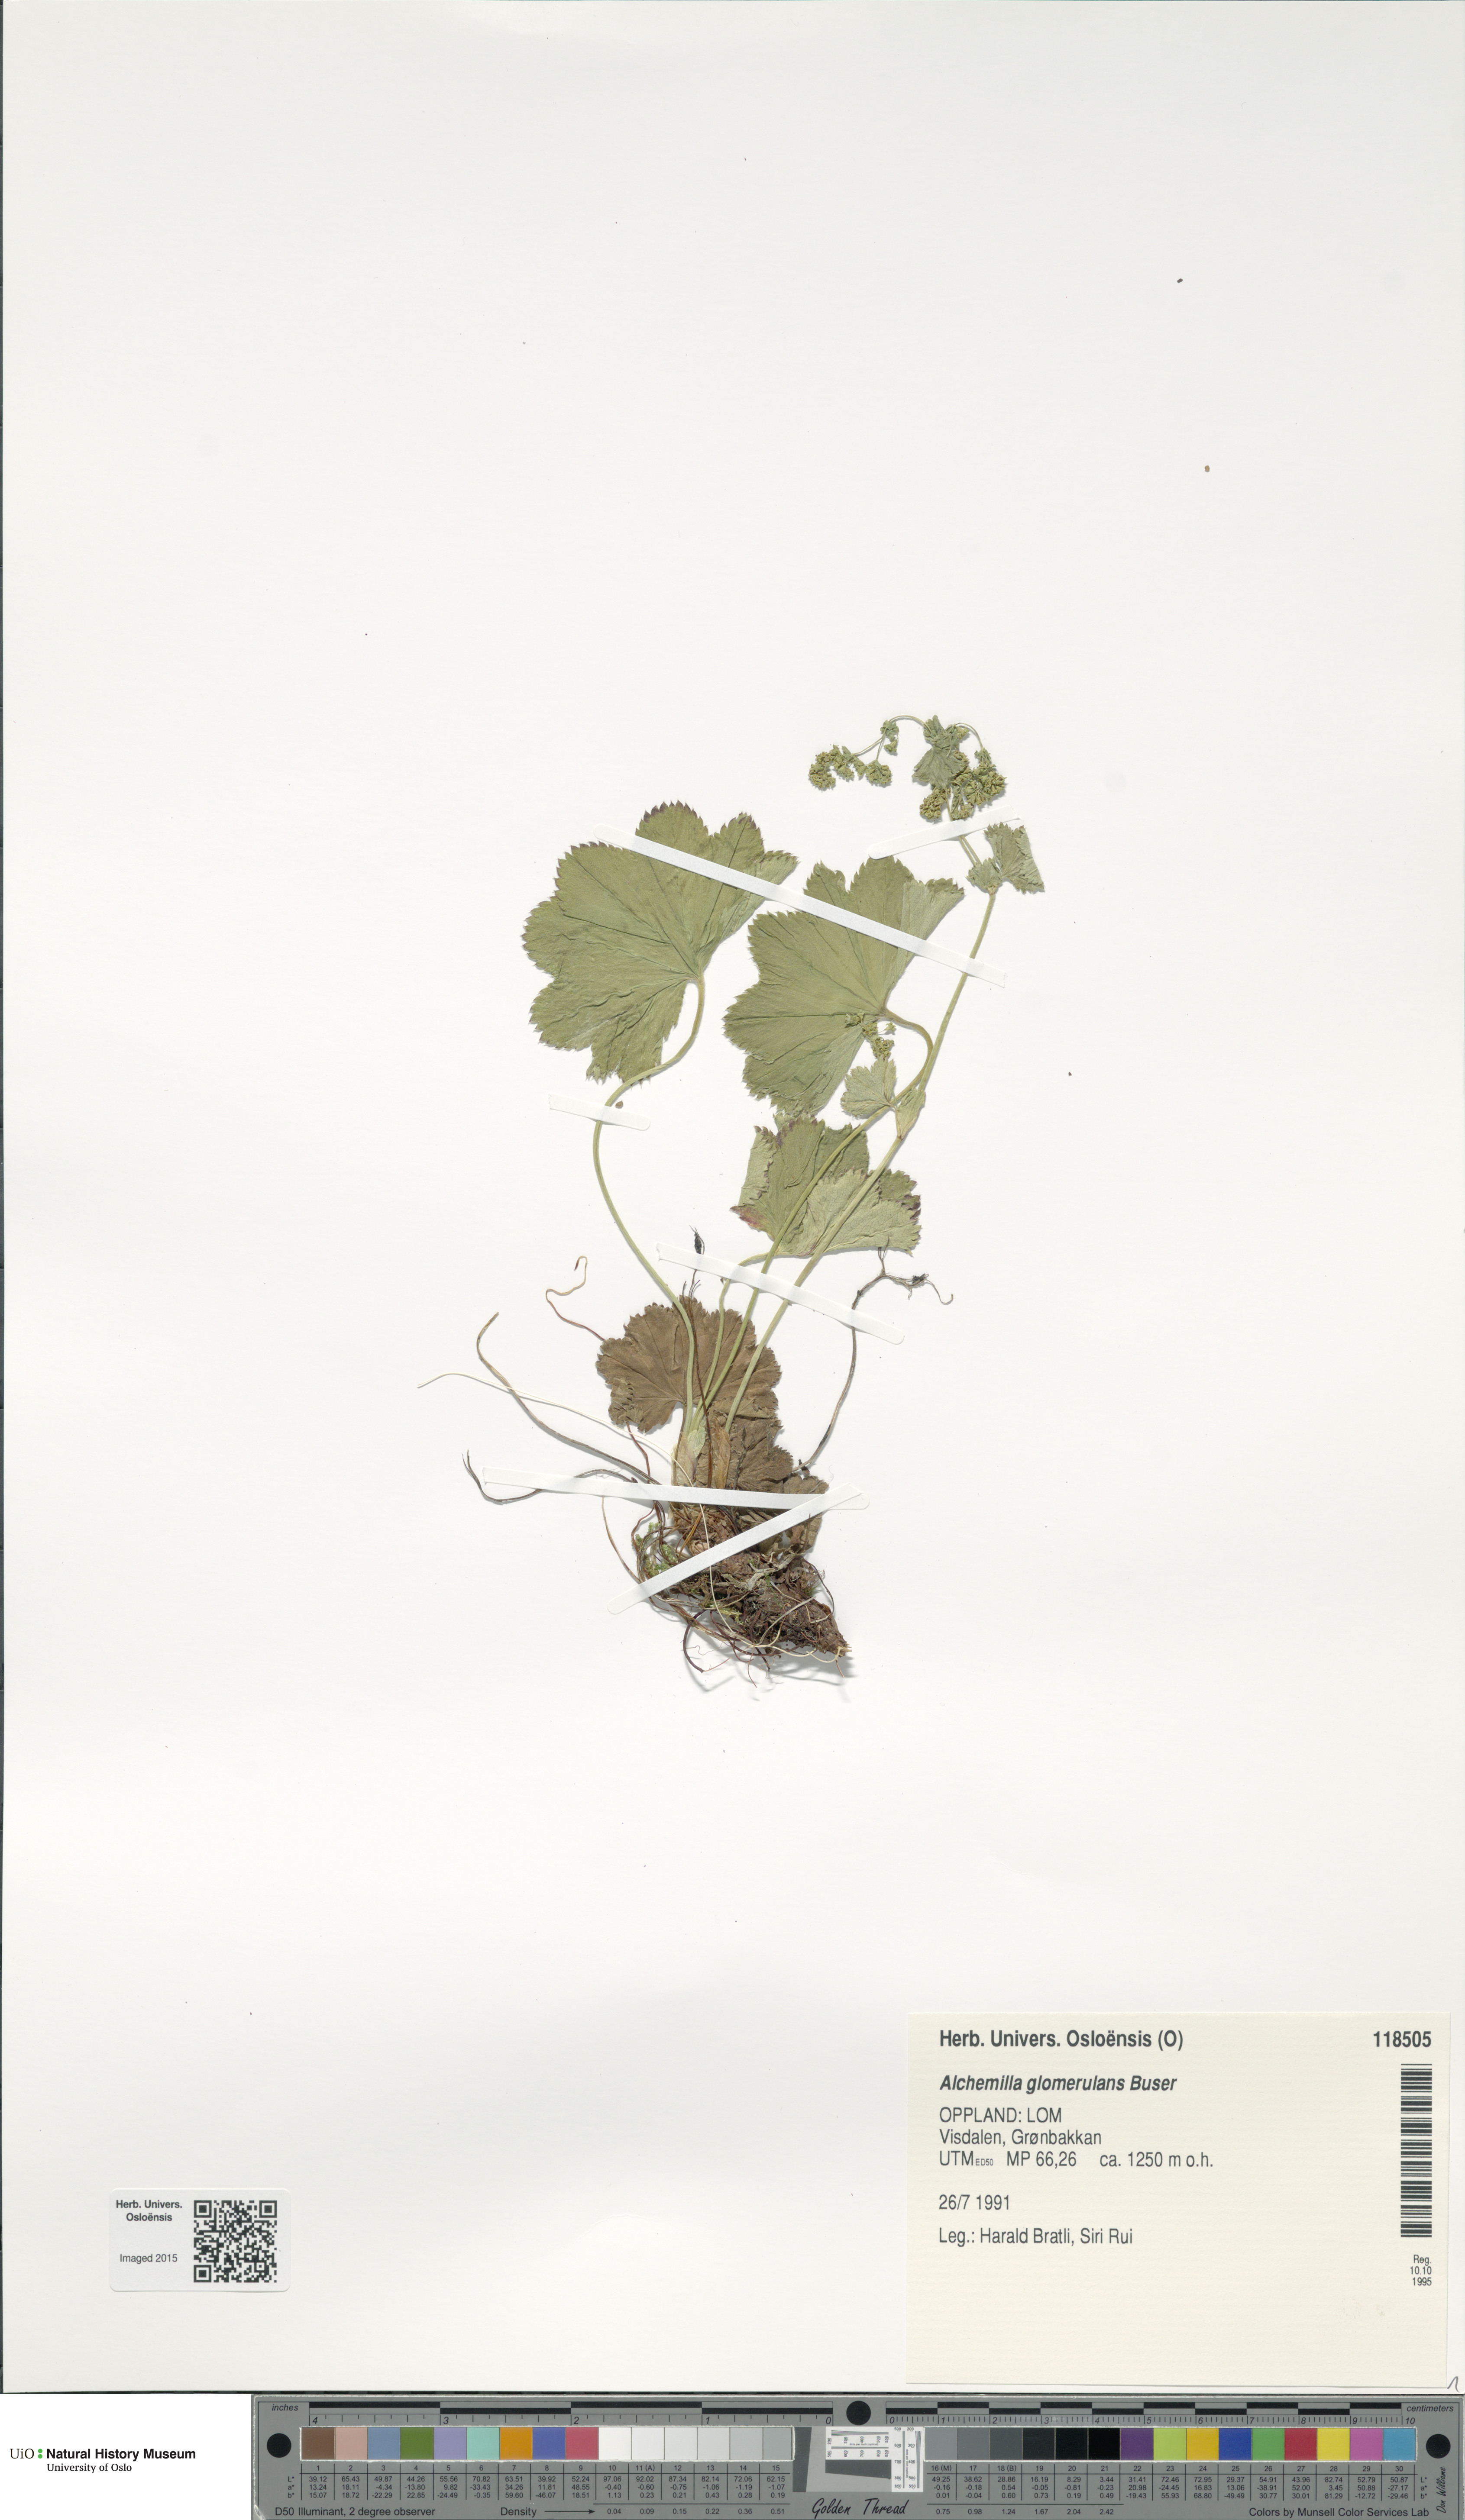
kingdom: Plantae
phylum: Tracheophyta
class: Magnoliopsida
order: Rosales
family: Rosaceae
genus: Alchemilla
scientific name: Alchemilla glomerulans
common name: Clustered lady's mantle
